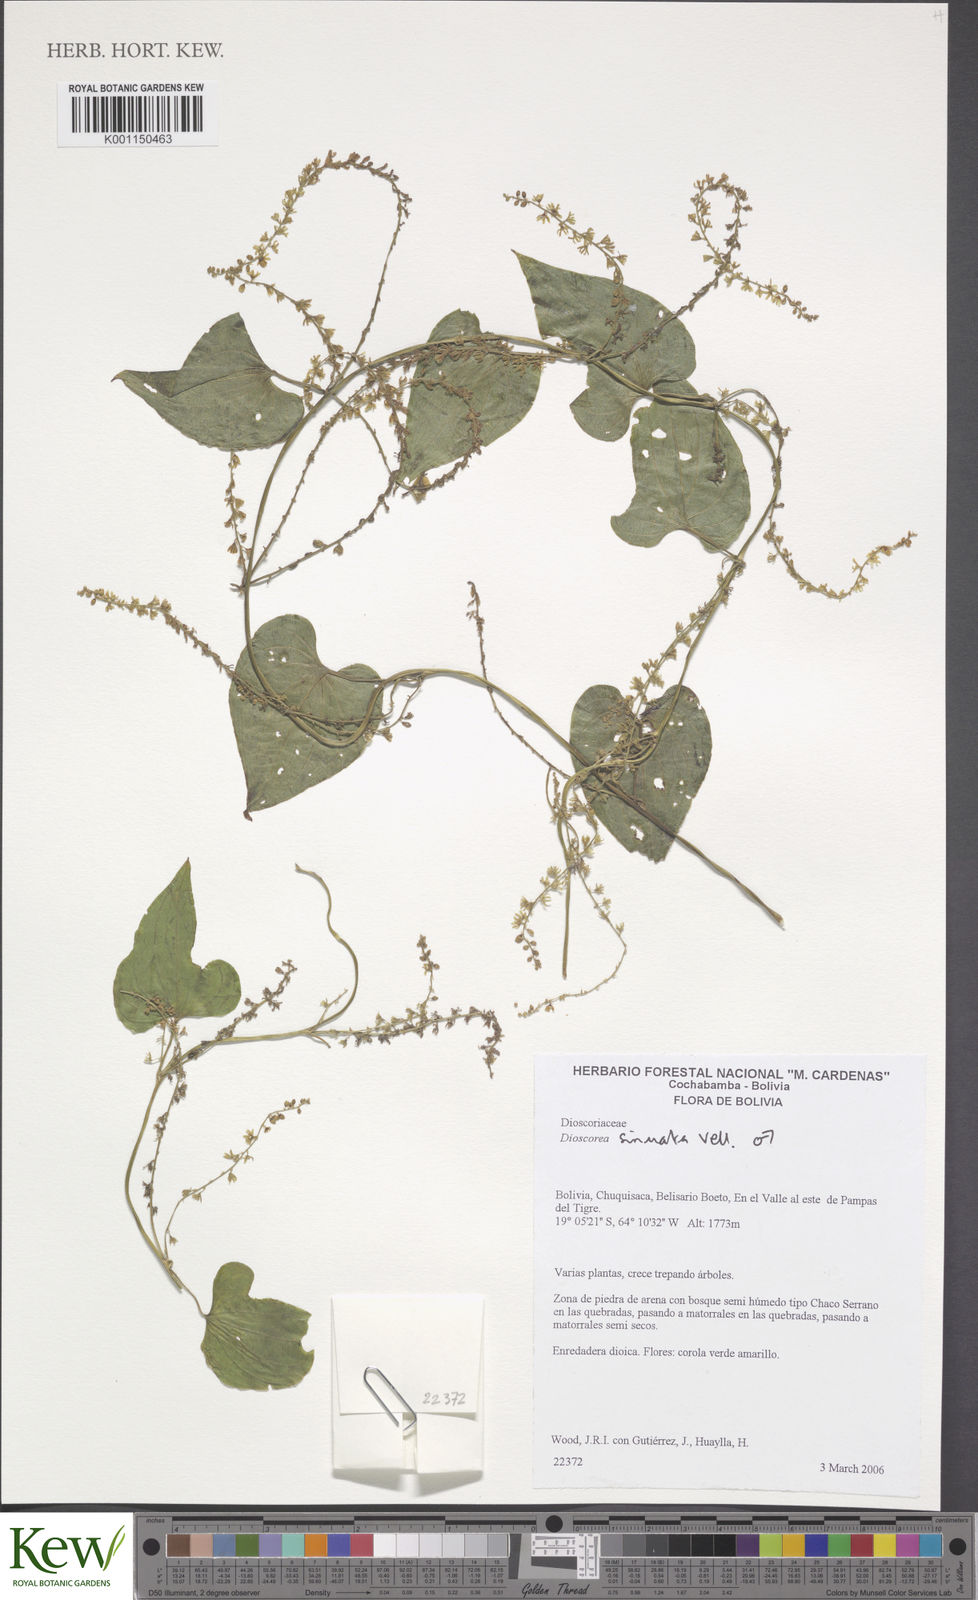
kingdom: Plantae
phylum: Tracheophyta
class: Liliopsida
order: Dioscoreales
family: Dioscoreaceae
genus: Dioscorea
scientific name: Dioscorea piperifolia
